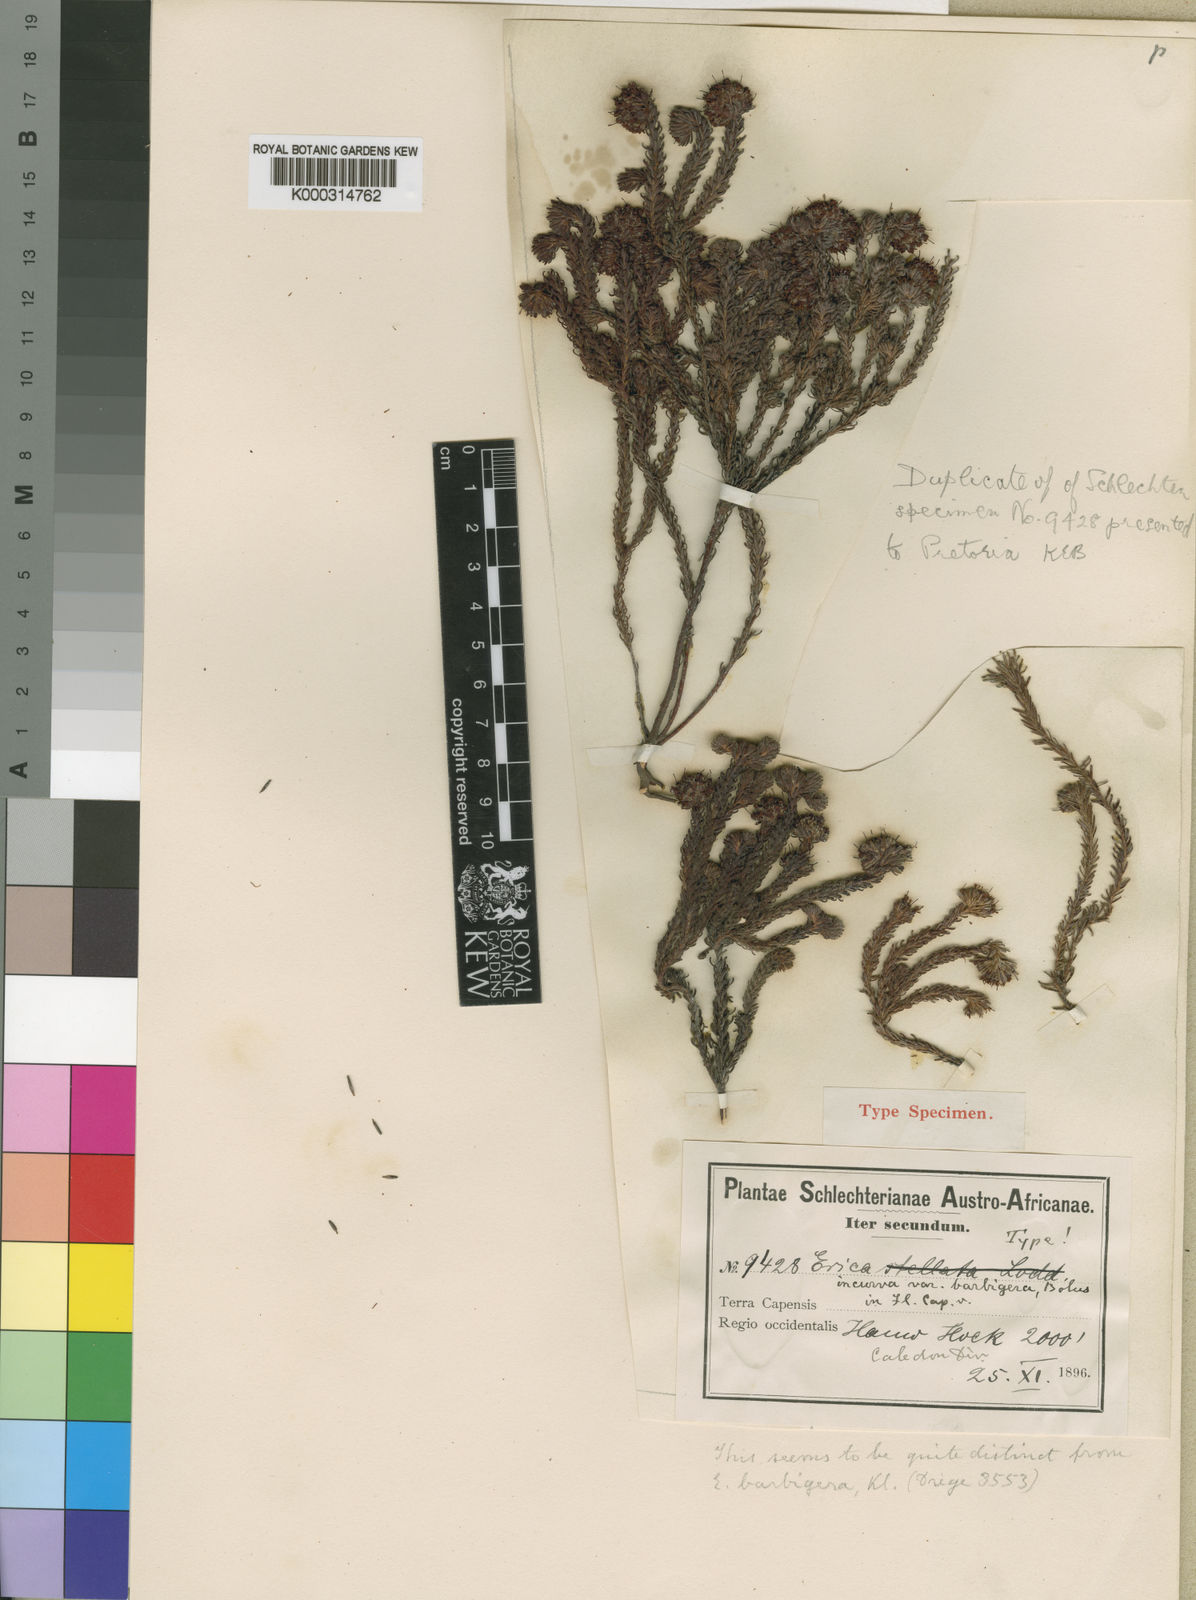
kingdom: Plantae
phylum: Tracheophyta
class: Magnoliopsida
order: Ericales
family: Ericaceae
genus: Erica
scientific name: Erica
